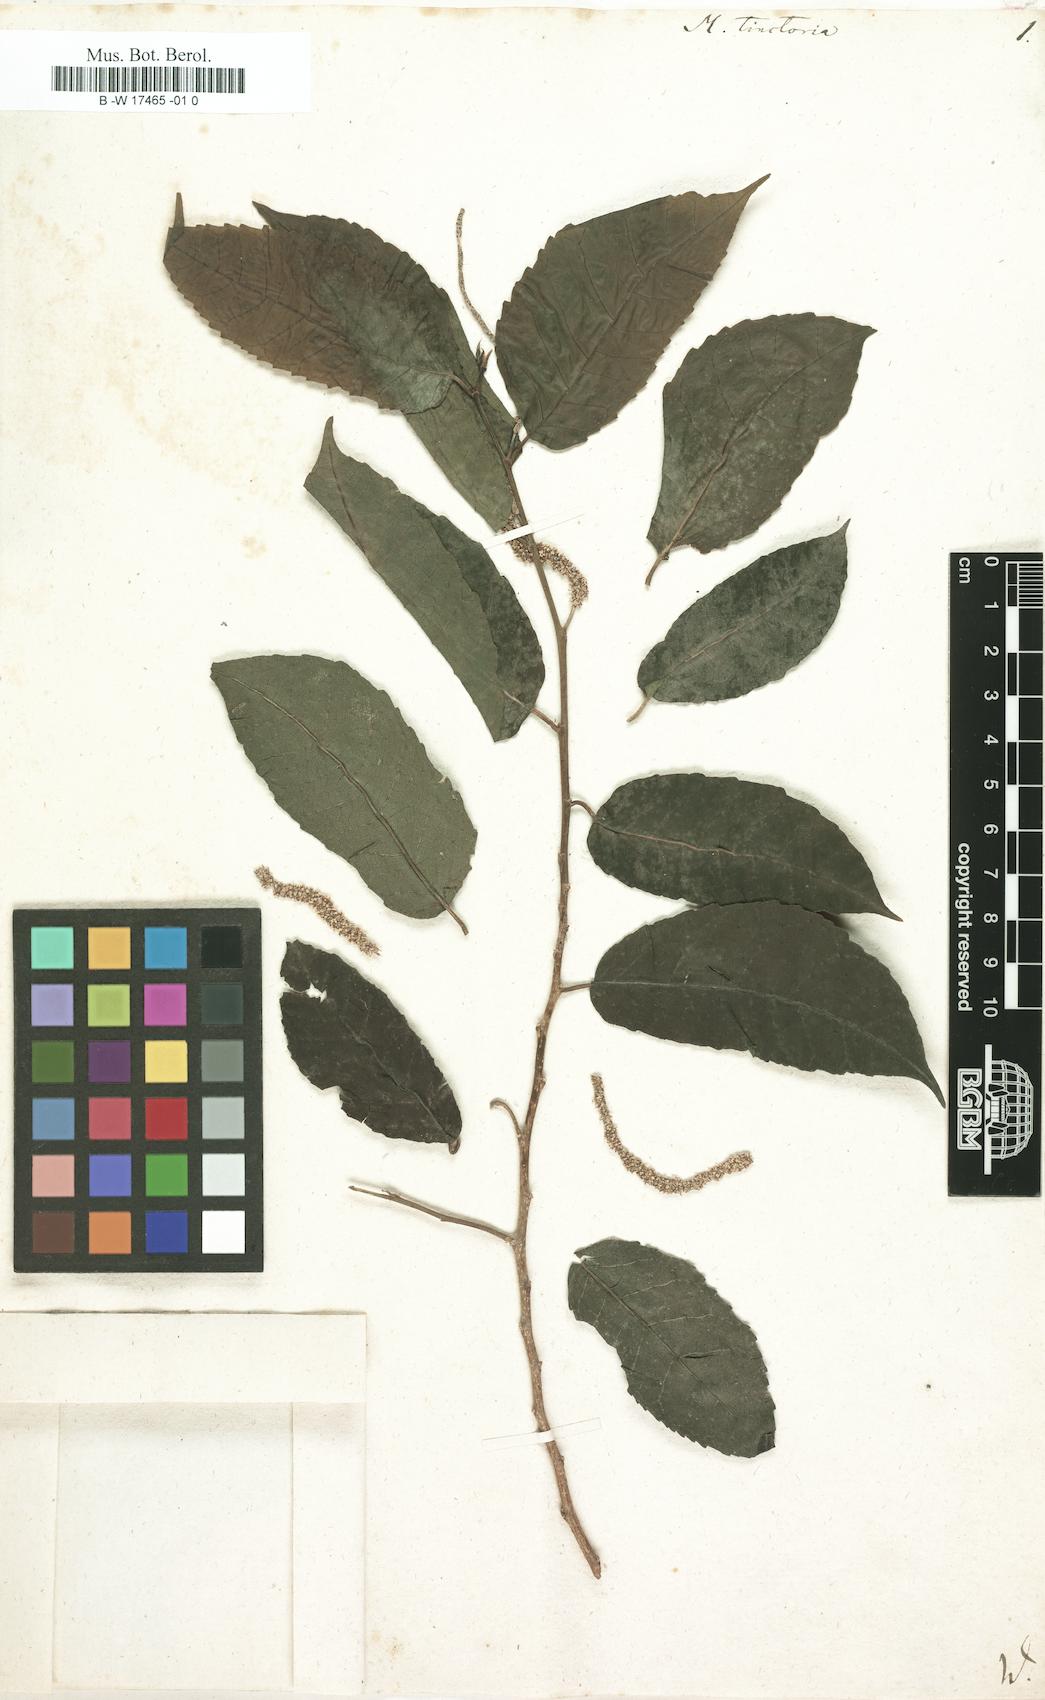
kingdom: Plantae
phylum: Tracheophyta
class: Magnoliopsida
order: Rosales
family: Moraceae
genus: Maclura
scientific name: Maclura
